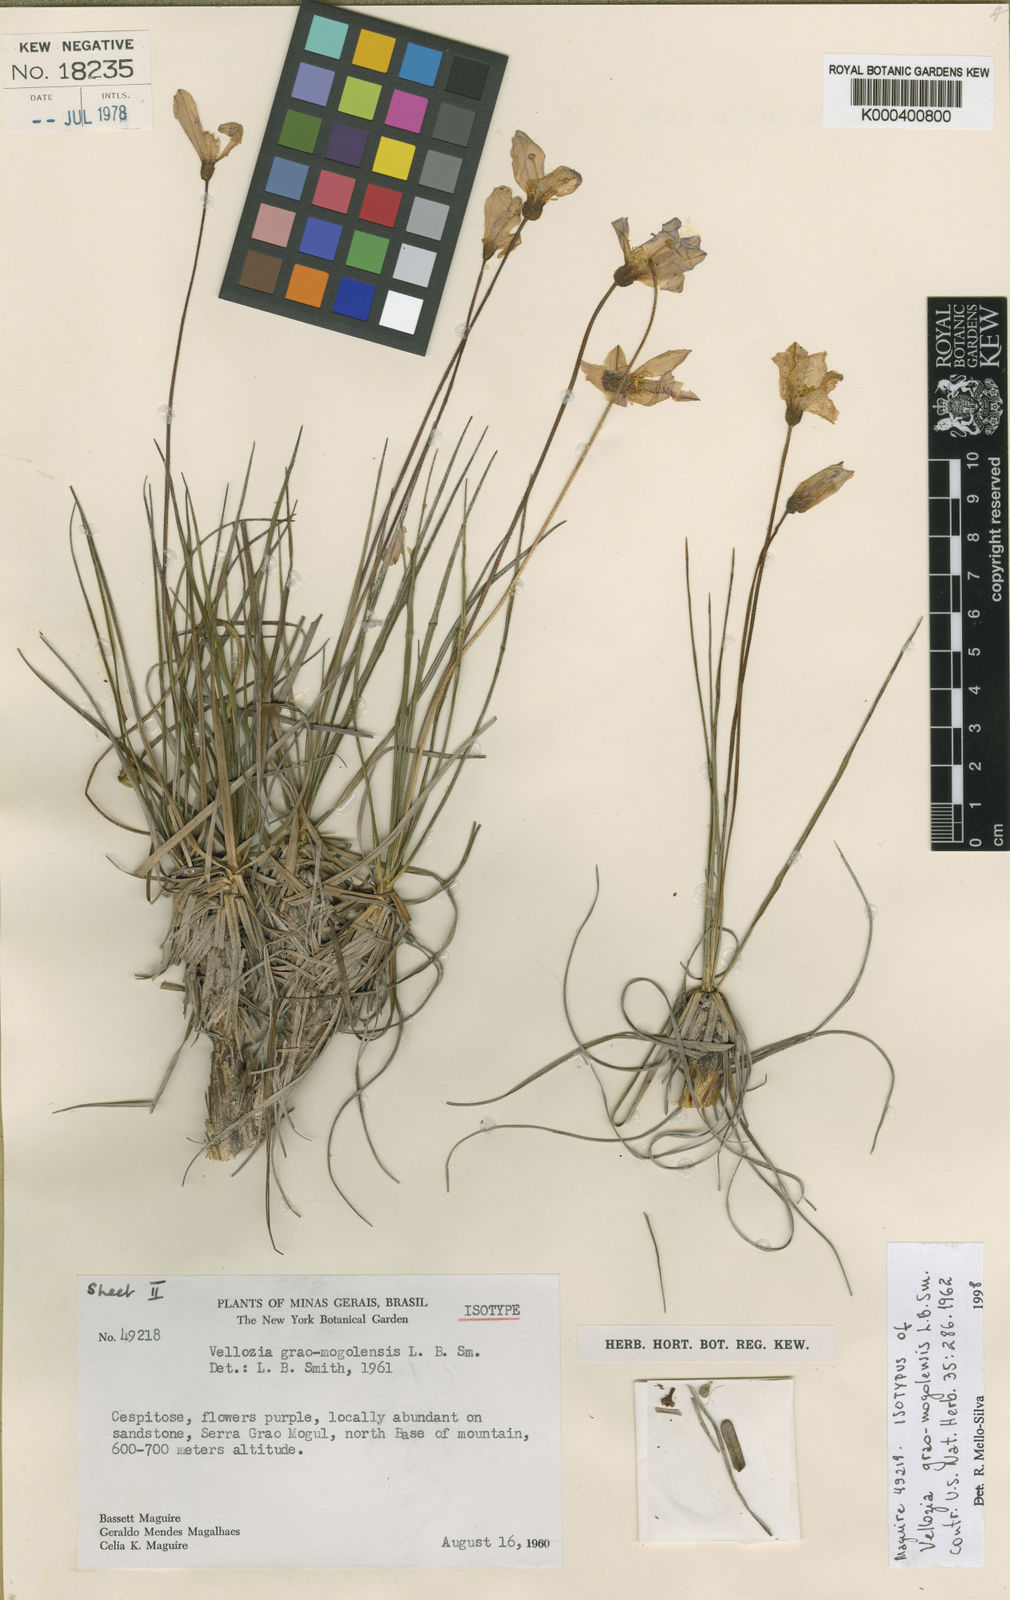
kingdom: Plantae
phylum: Tracheophyta
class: Liliopsida
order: Pandanales
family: Velloziaceae
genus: Vellozia
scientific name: Vellozia grao-mogulensis
